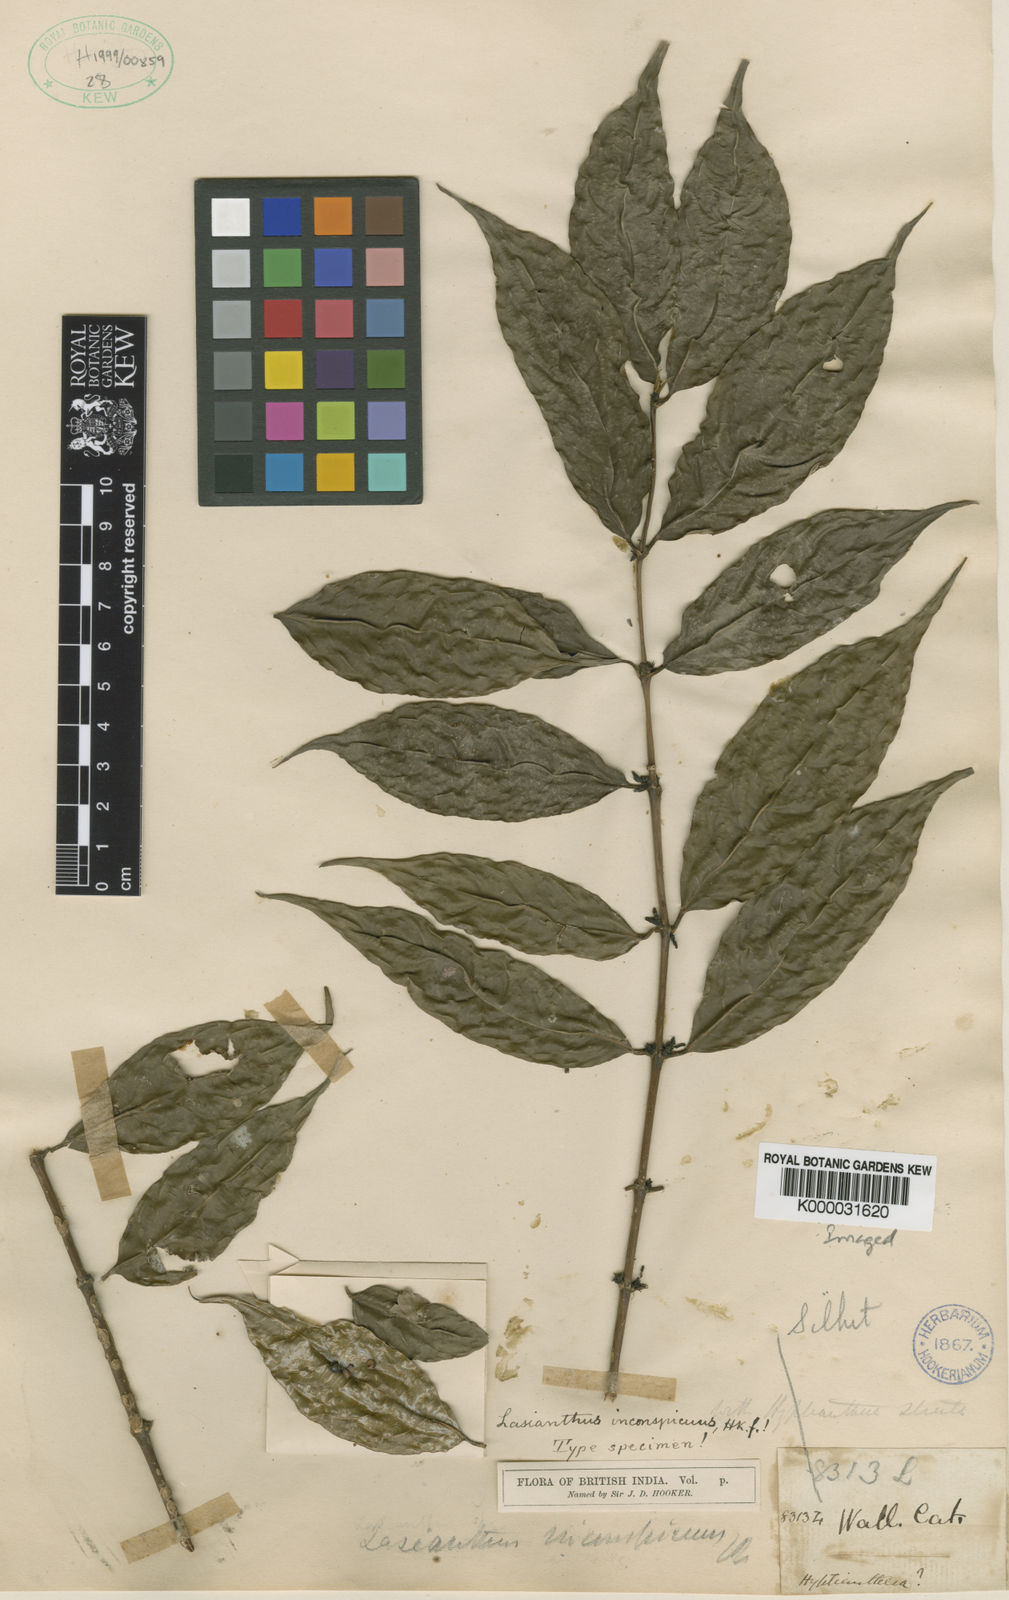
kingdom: Plantae
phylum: Tracheophyta
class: Magnoliopsida
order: Gentianales
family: Rubiaceae
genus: Lasianthus
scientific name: Lasianthus lucidus
